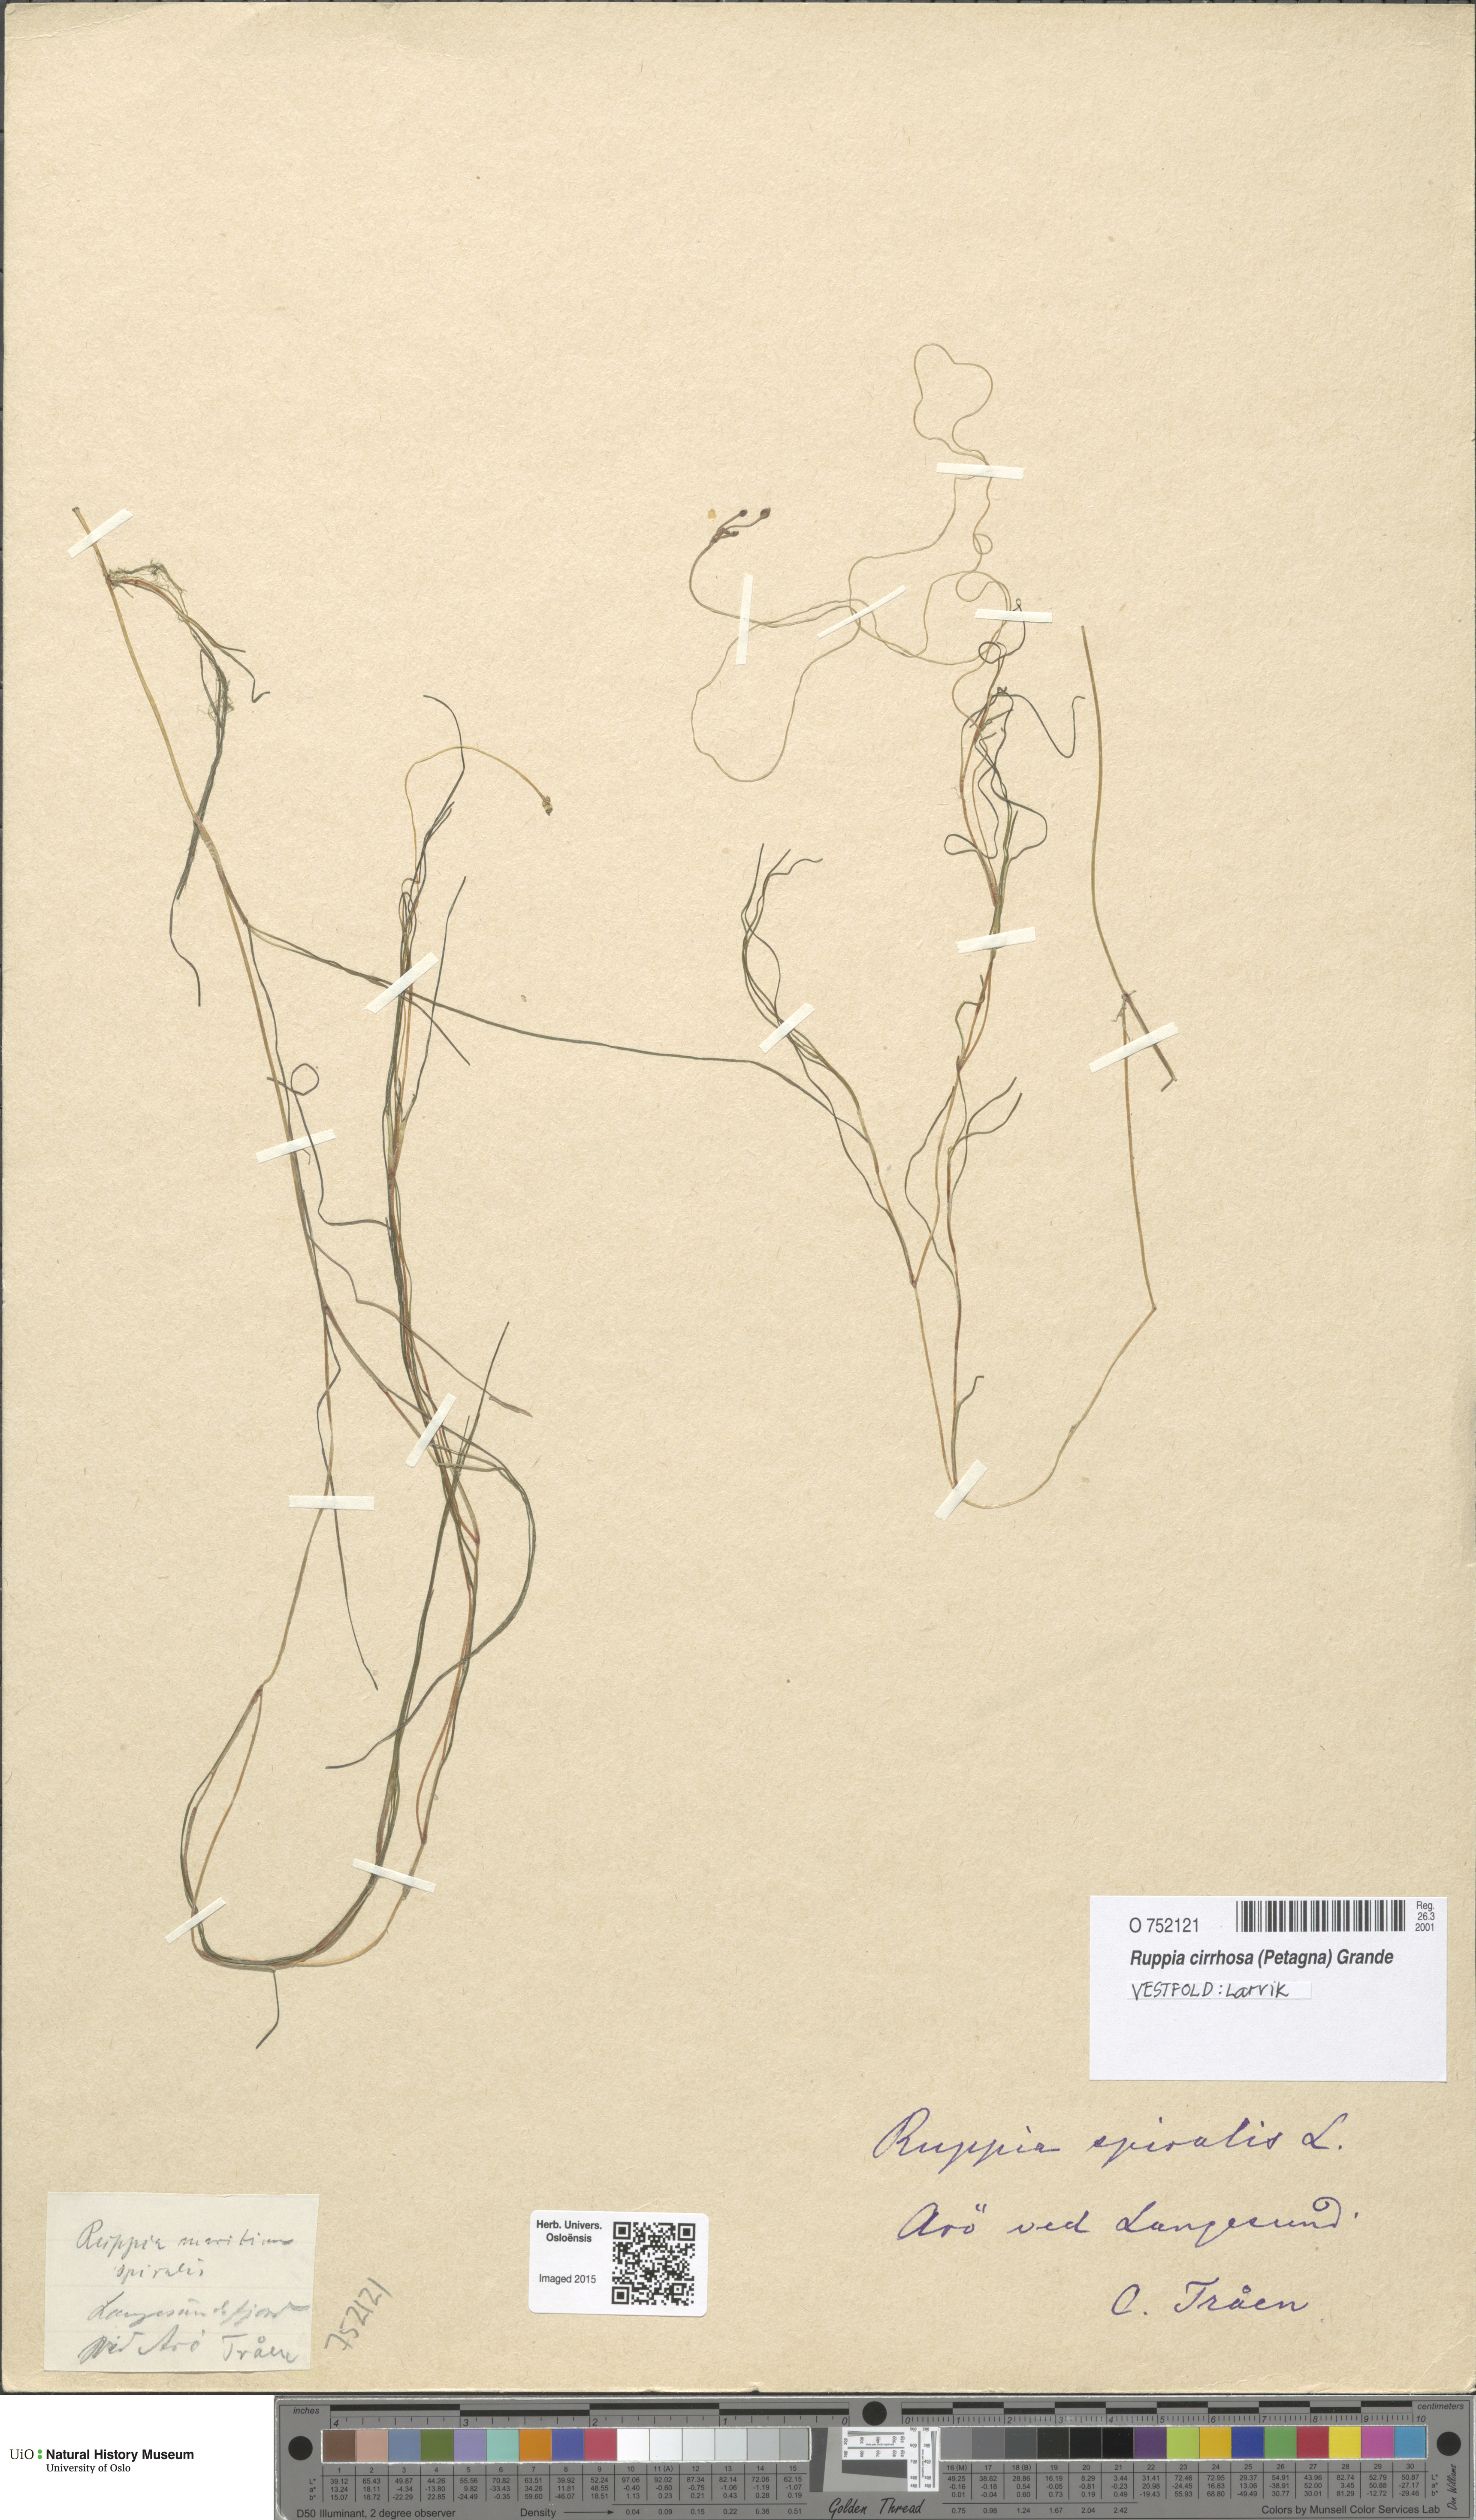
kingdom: Plantae
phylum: Tracheophyta
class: Liliopsida
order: Alismatales
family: Ruppiaceae
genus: Ruppia
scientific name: Ruppia cirrhosa
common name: Spiral tasselweed
